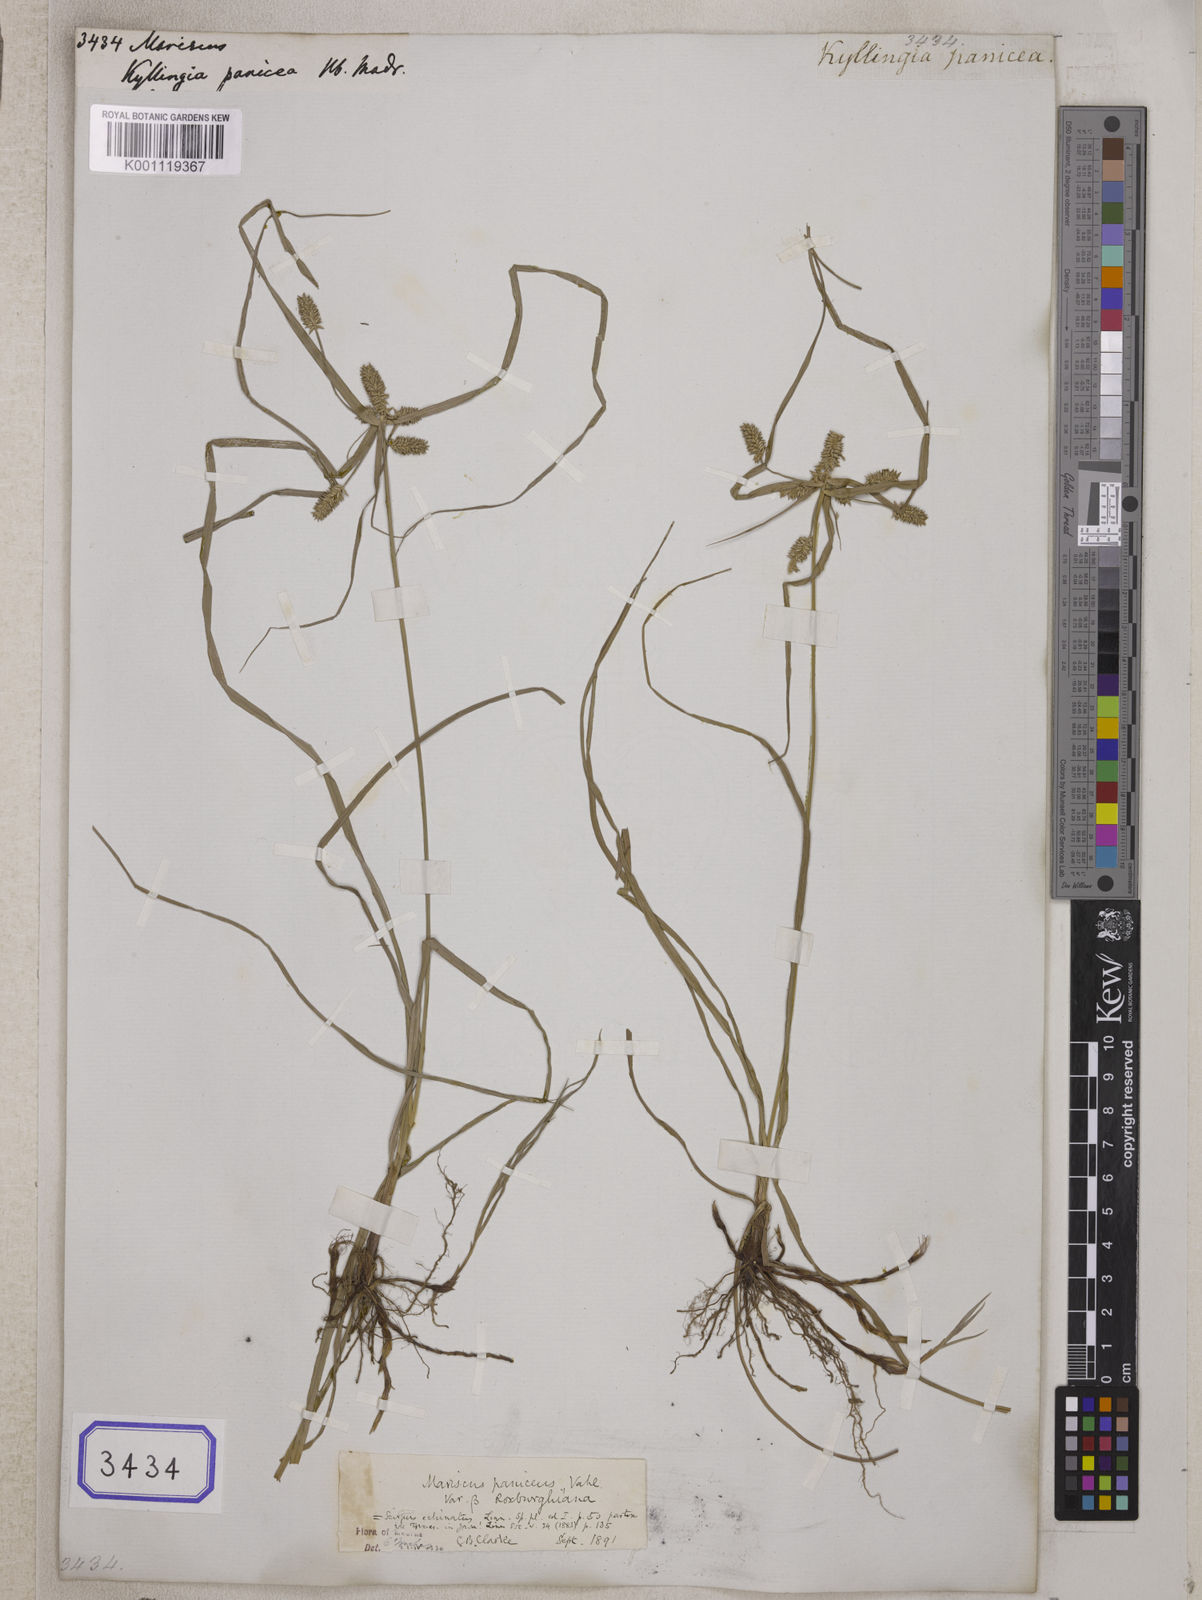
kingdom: Plantae
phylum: Tracheophyta
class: Liliopsida
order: Poales
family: Cyperaceae
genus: Mariscus
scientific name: Mariscus
